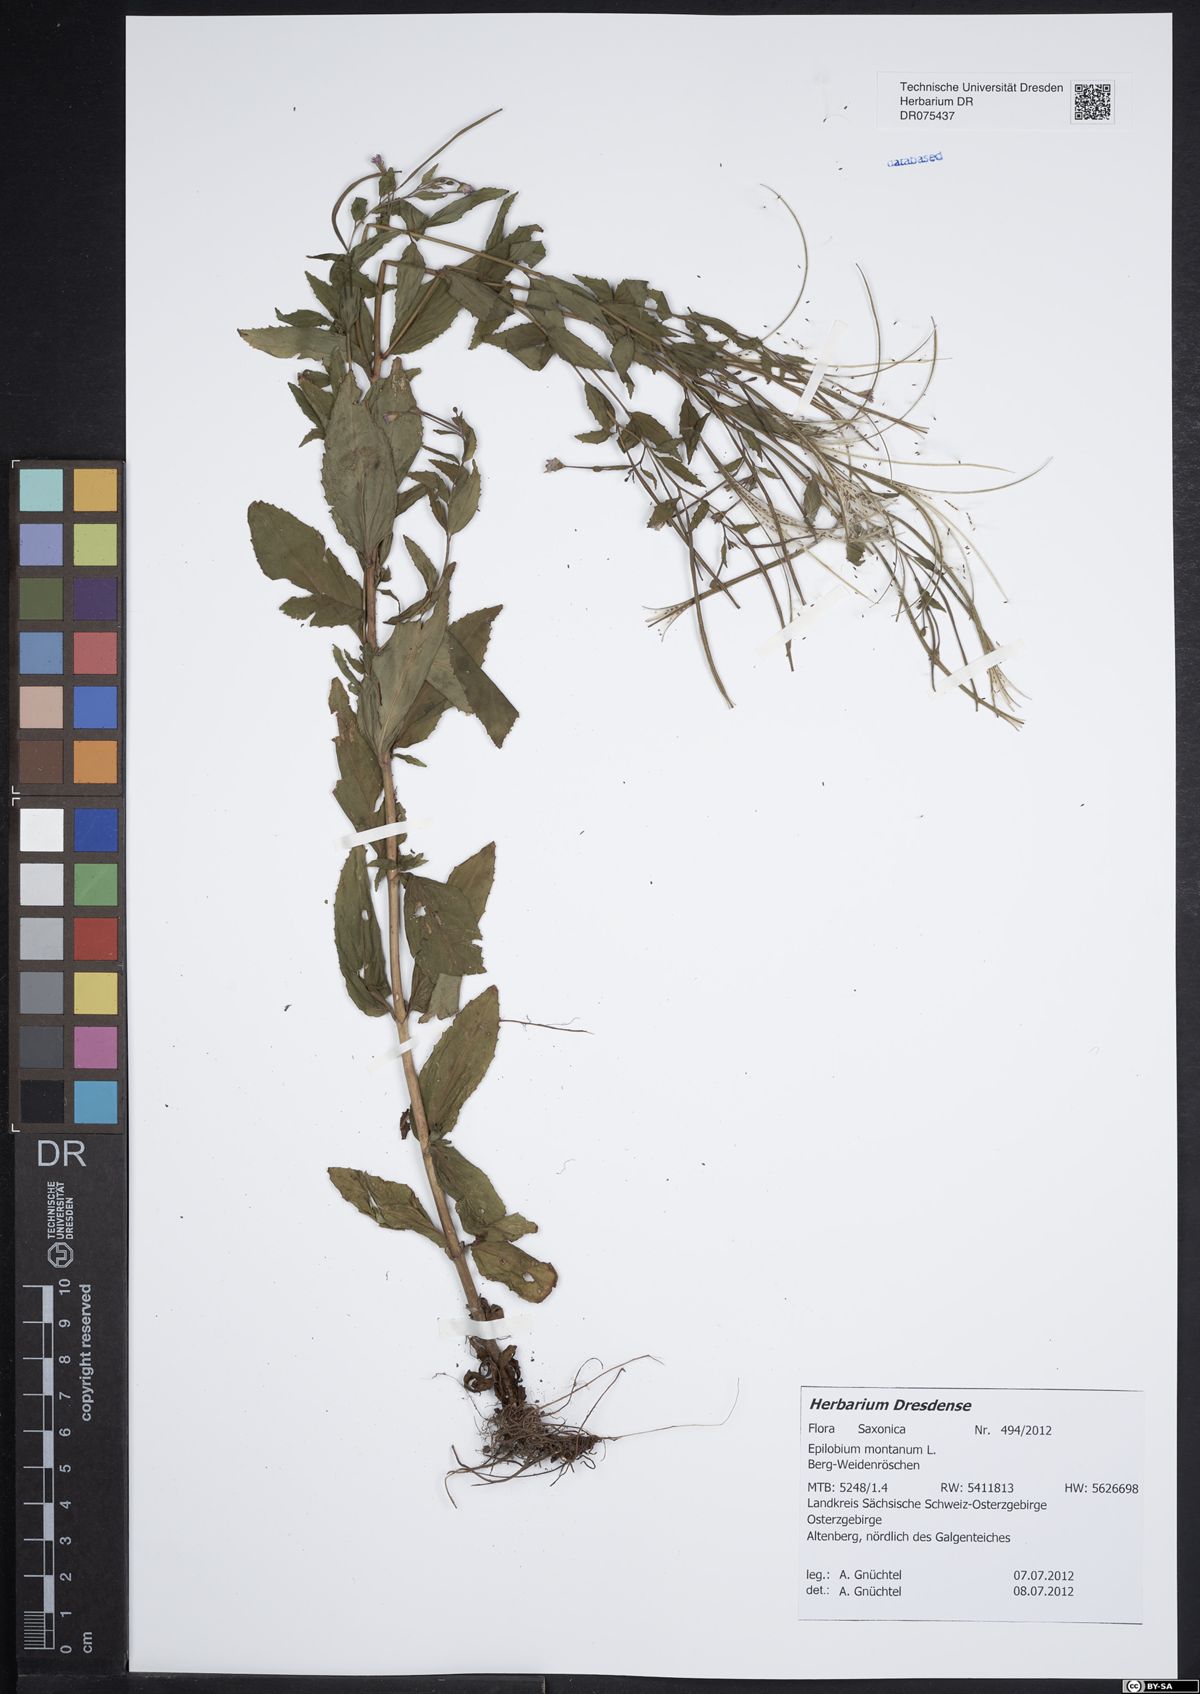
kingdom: Plantae
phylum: Tracheophyta
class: Magnoliopsida
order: Myrtales
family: Onagraceae
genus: Epilobium
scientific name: Epilobium montanum
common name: Broad-leaved willowherb
